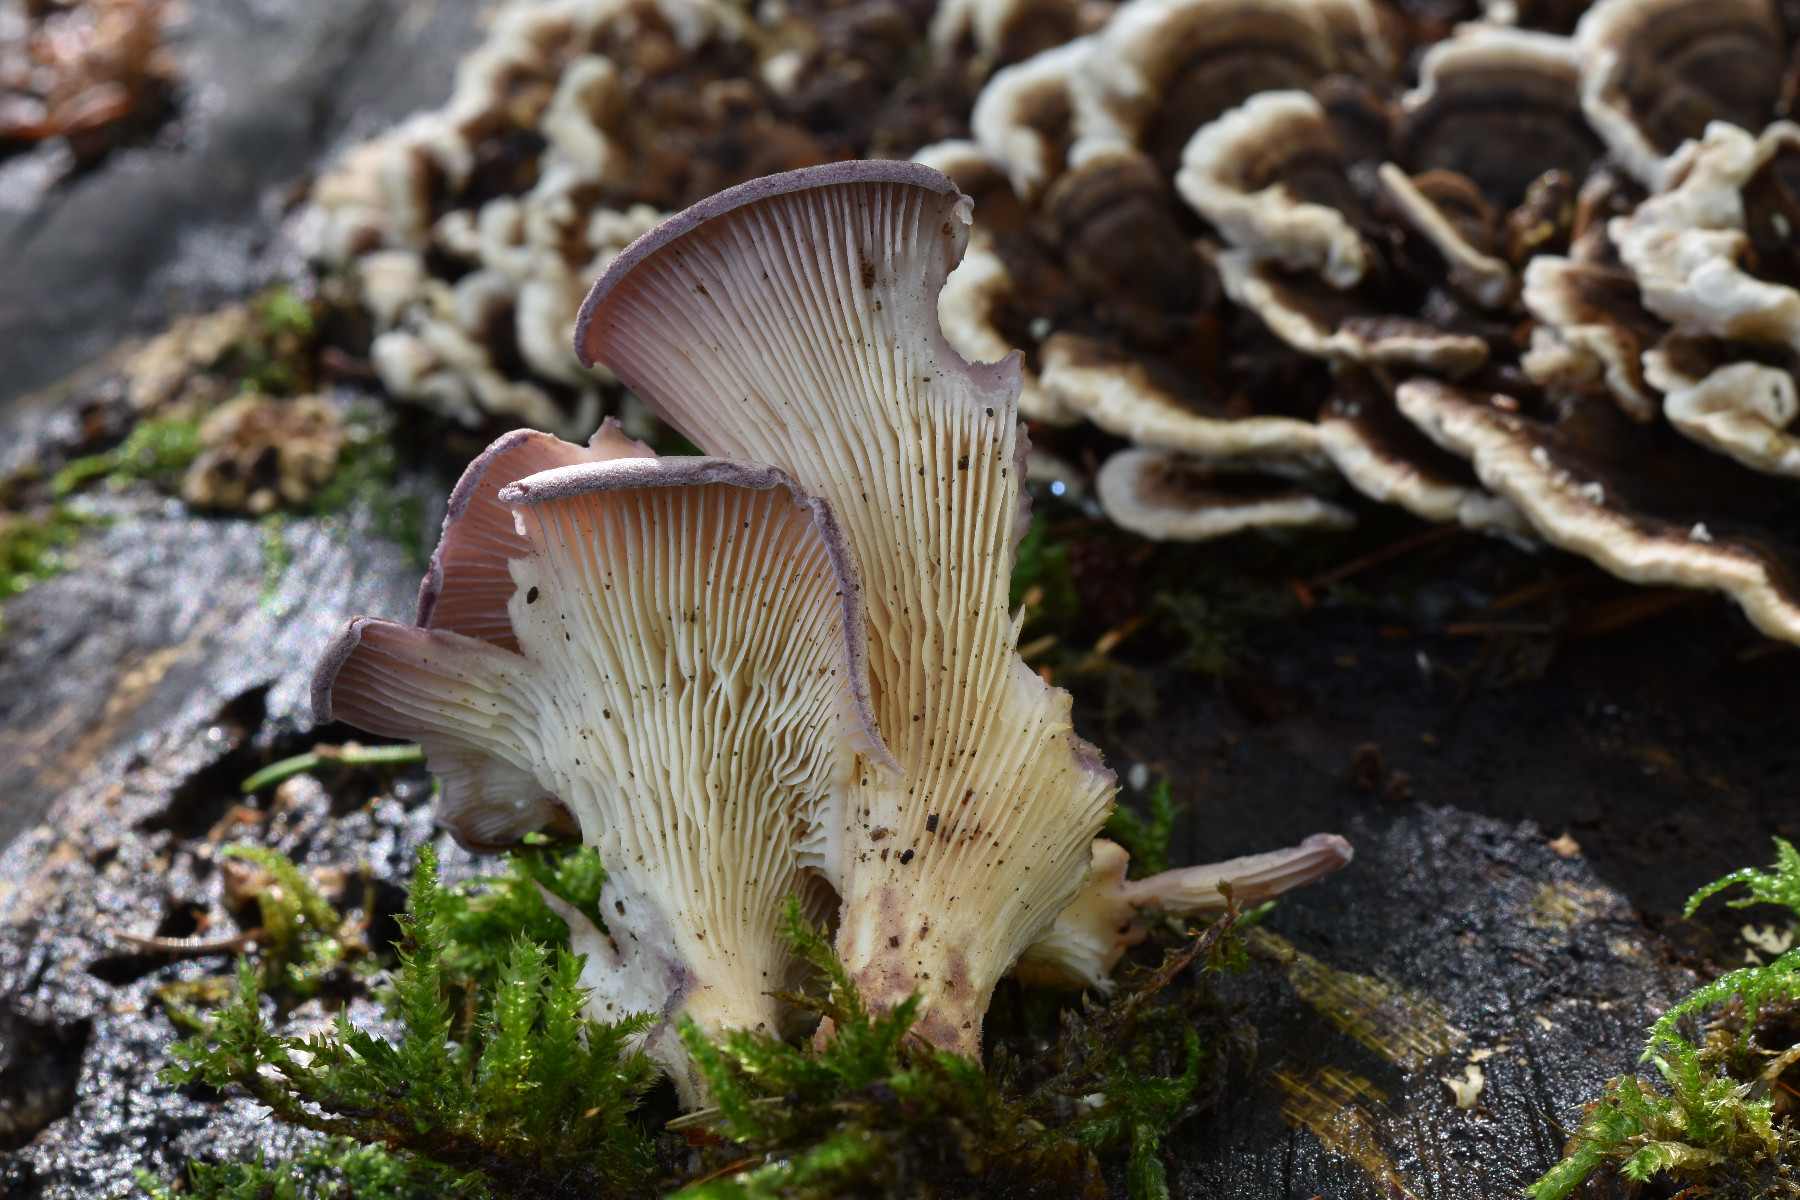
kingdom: Fungi
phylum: Basidiomycota
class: Agaricomycetes
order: Polyporales
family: Panaceae
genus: Panus
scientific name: Panus conchatus
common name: filtstokket læderhat
